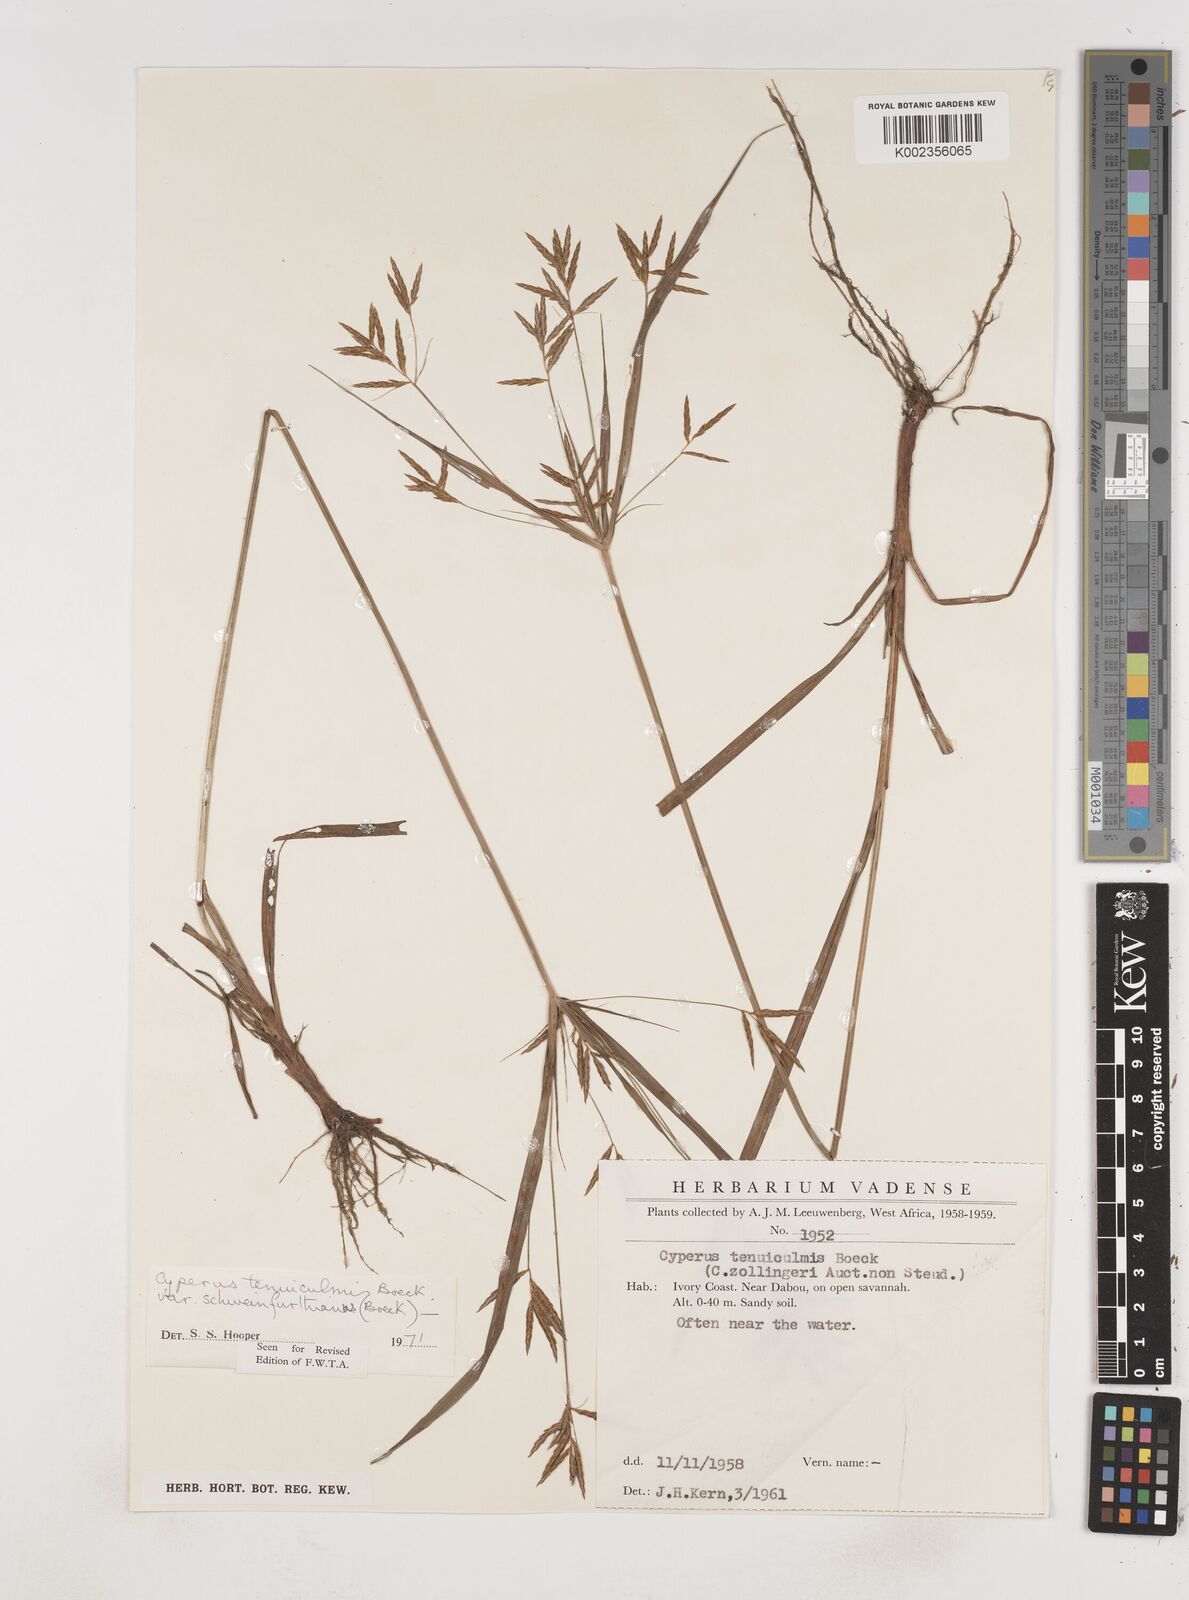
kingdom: Plantae
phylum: Tracheophyta
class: Liliopsida
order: Poales
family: Cyperaceae
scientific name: Cyperaceae
